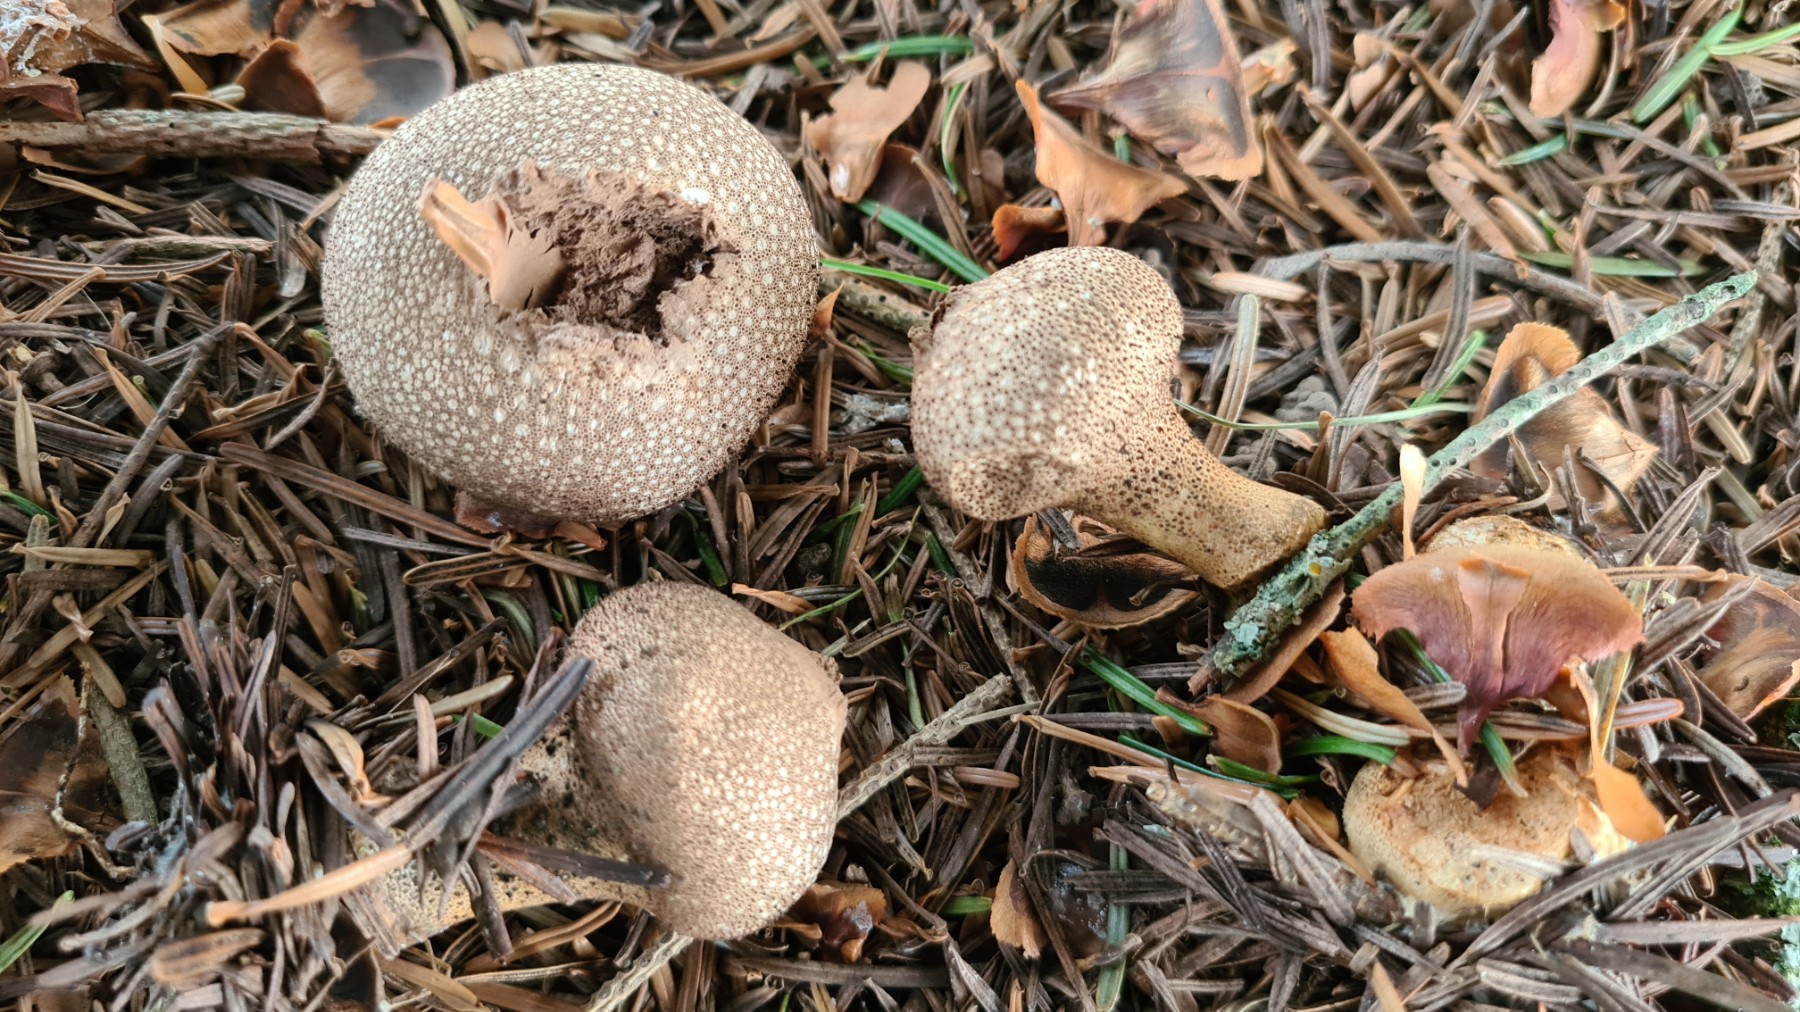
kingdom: Fungi
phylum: Basidiomycota
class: Agaricomycetes
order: Agaricales
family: Lycoperdaceae
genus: Lycoperdon
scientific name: Lycoperdon nigrescens
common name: sortagtig støvbold
